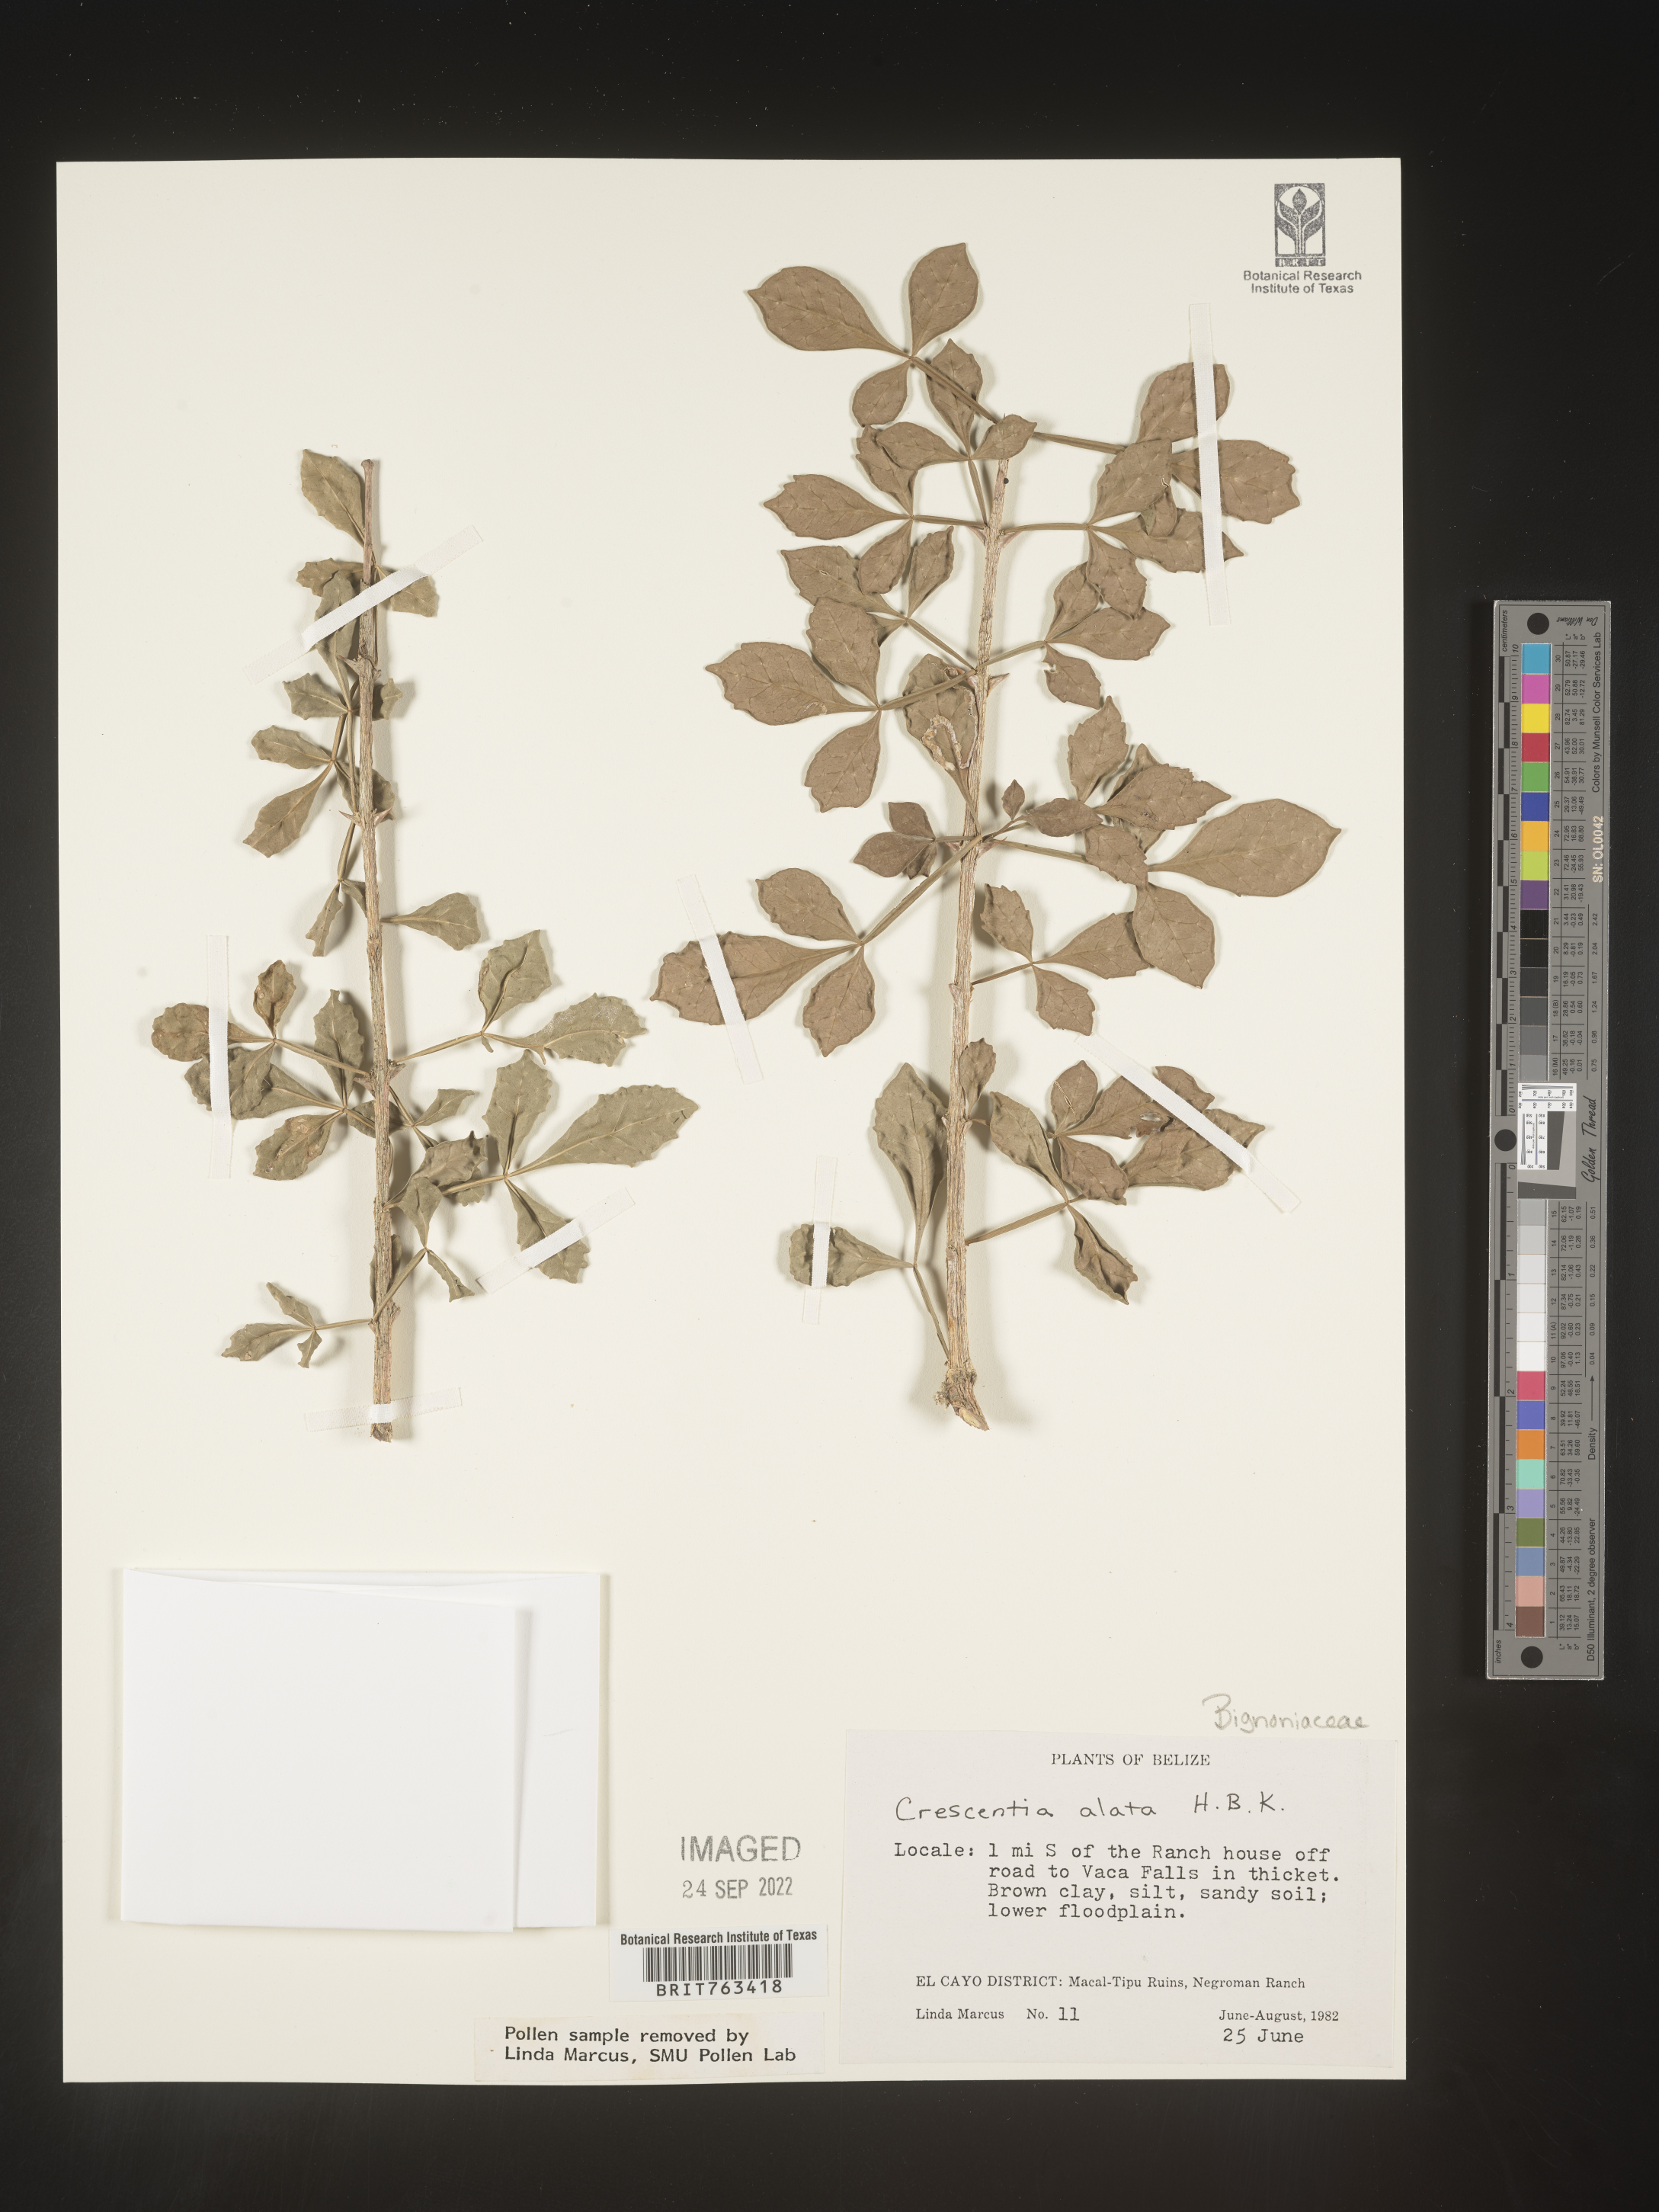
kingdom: Plantae
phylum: Tracheophyta
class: Magnoliopsida
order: Lamiales
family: Bignoniaceae
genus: Crescentia
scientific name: Crescentia
